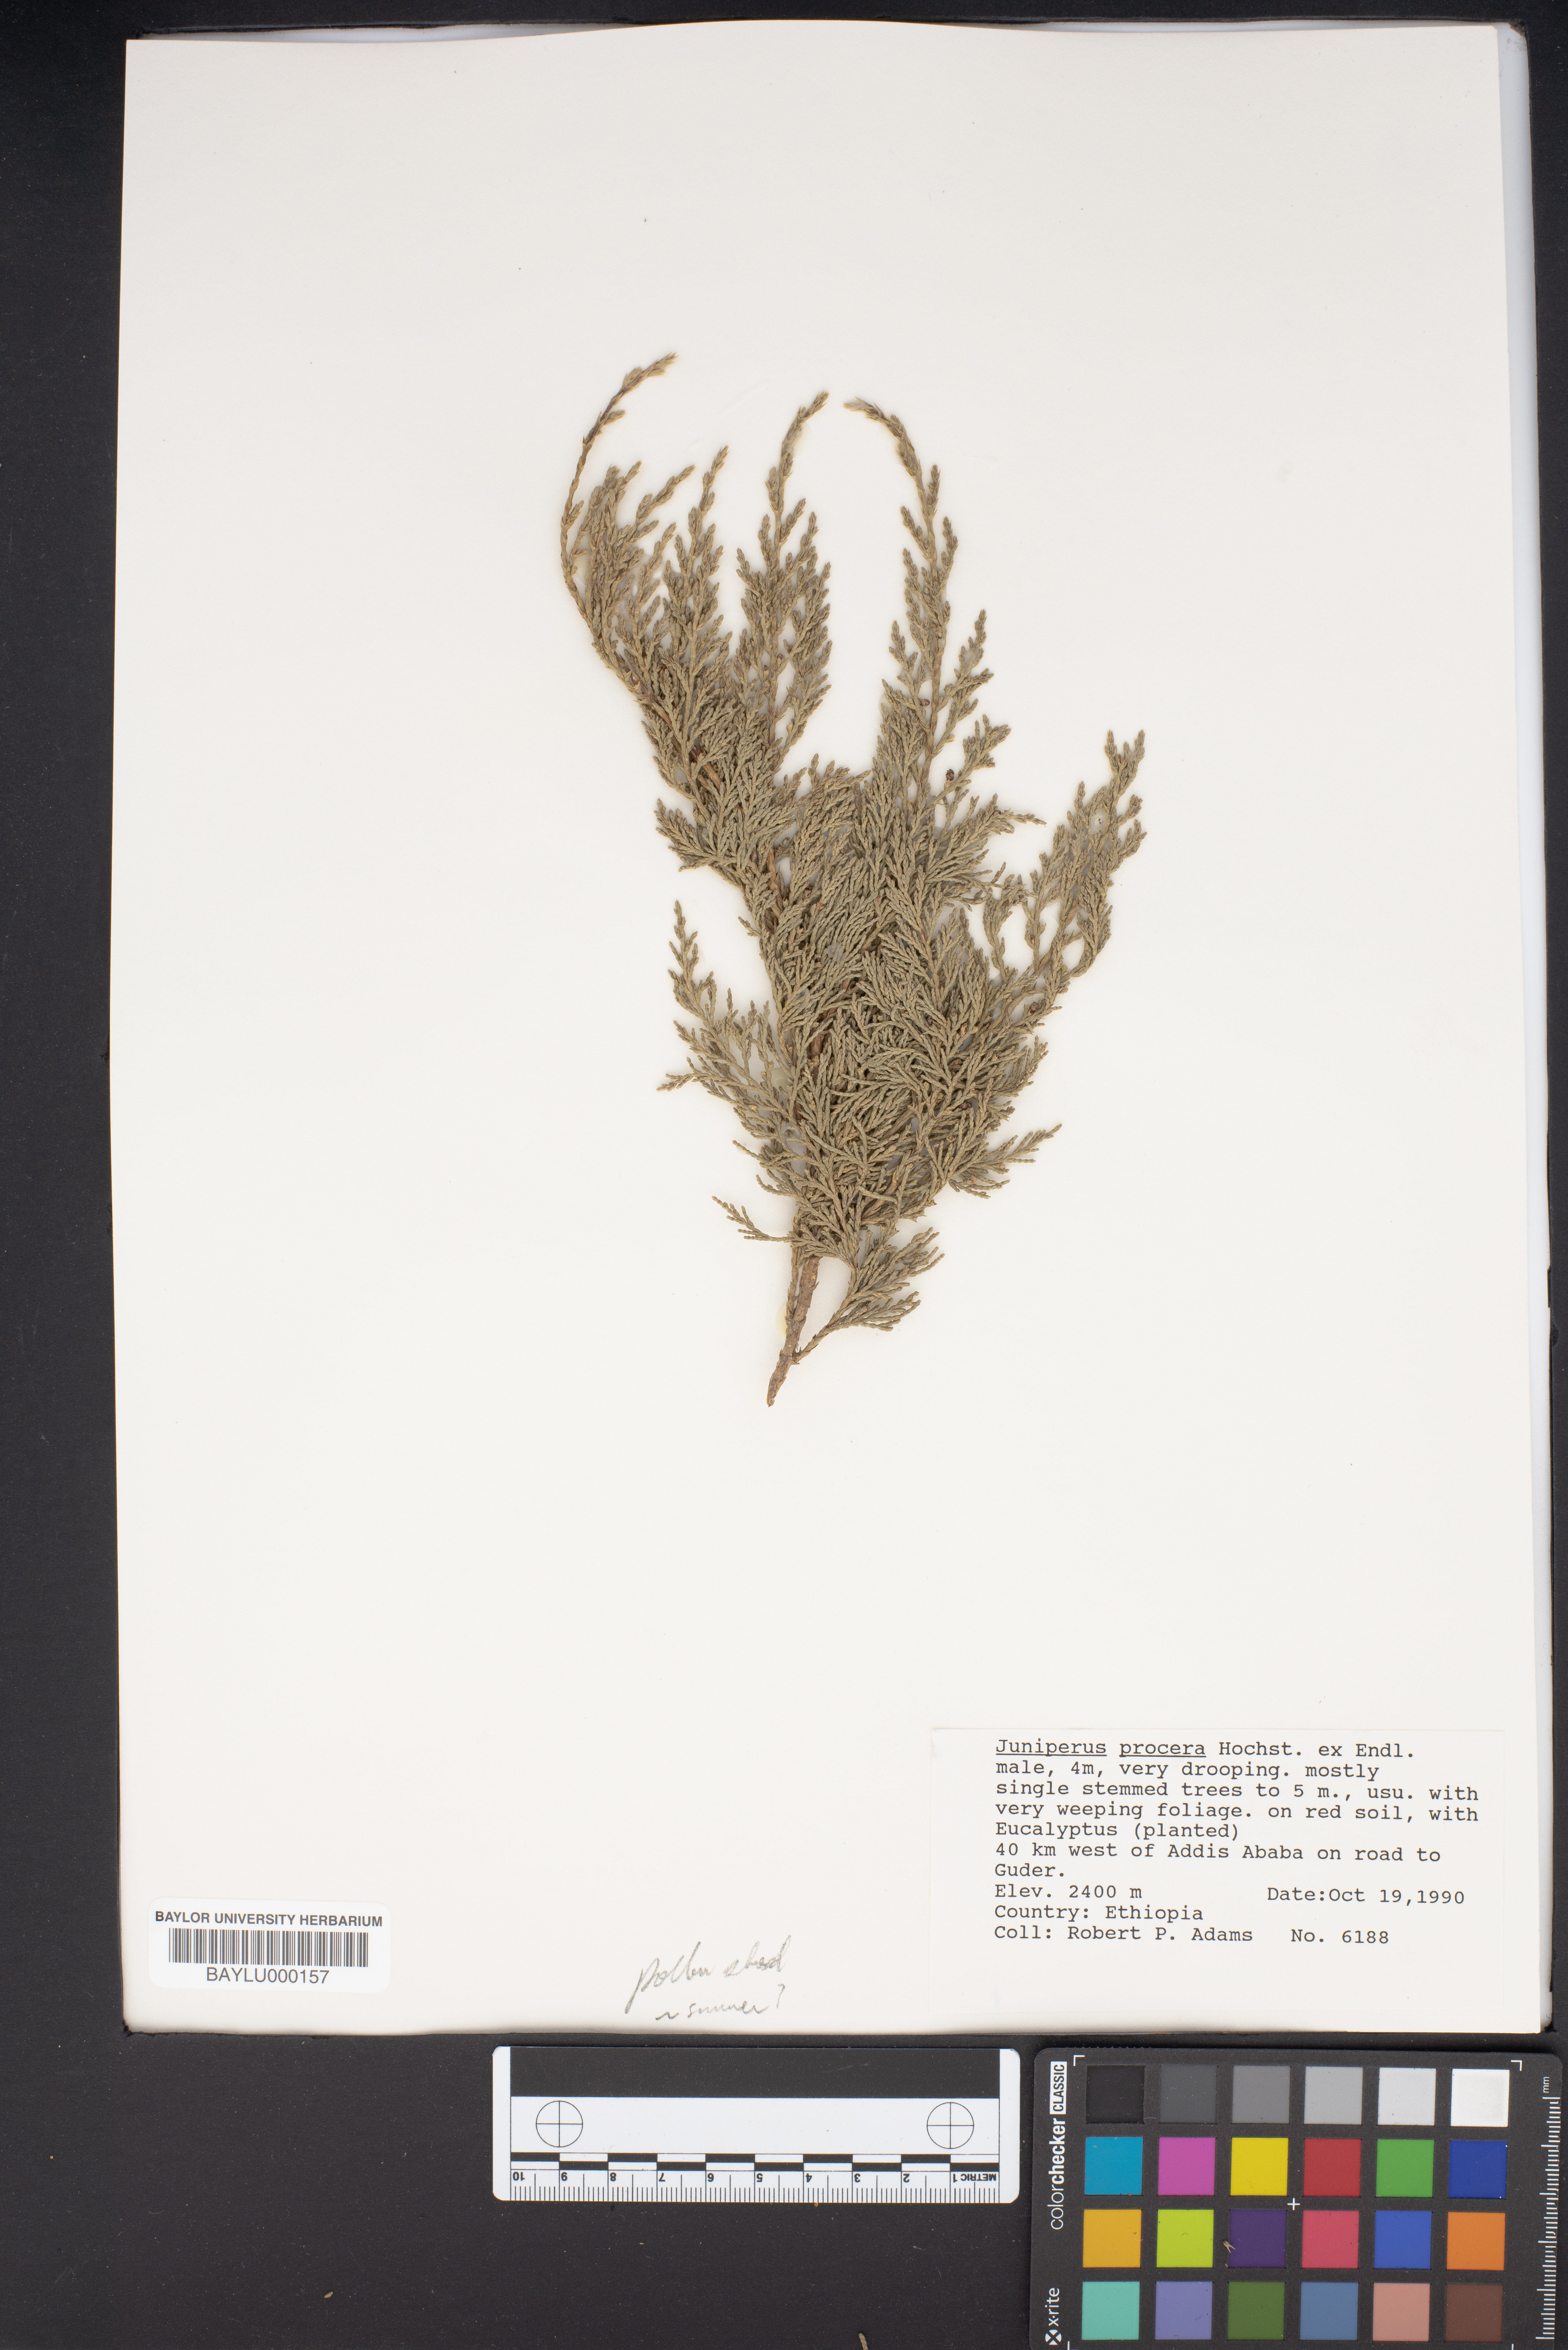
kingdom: Plantae
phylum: Tracheophyta
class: Pinopsida
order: Pinales
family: Cupressaceae
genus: Juniperus
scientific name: Juniperus procera
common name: African juniper
